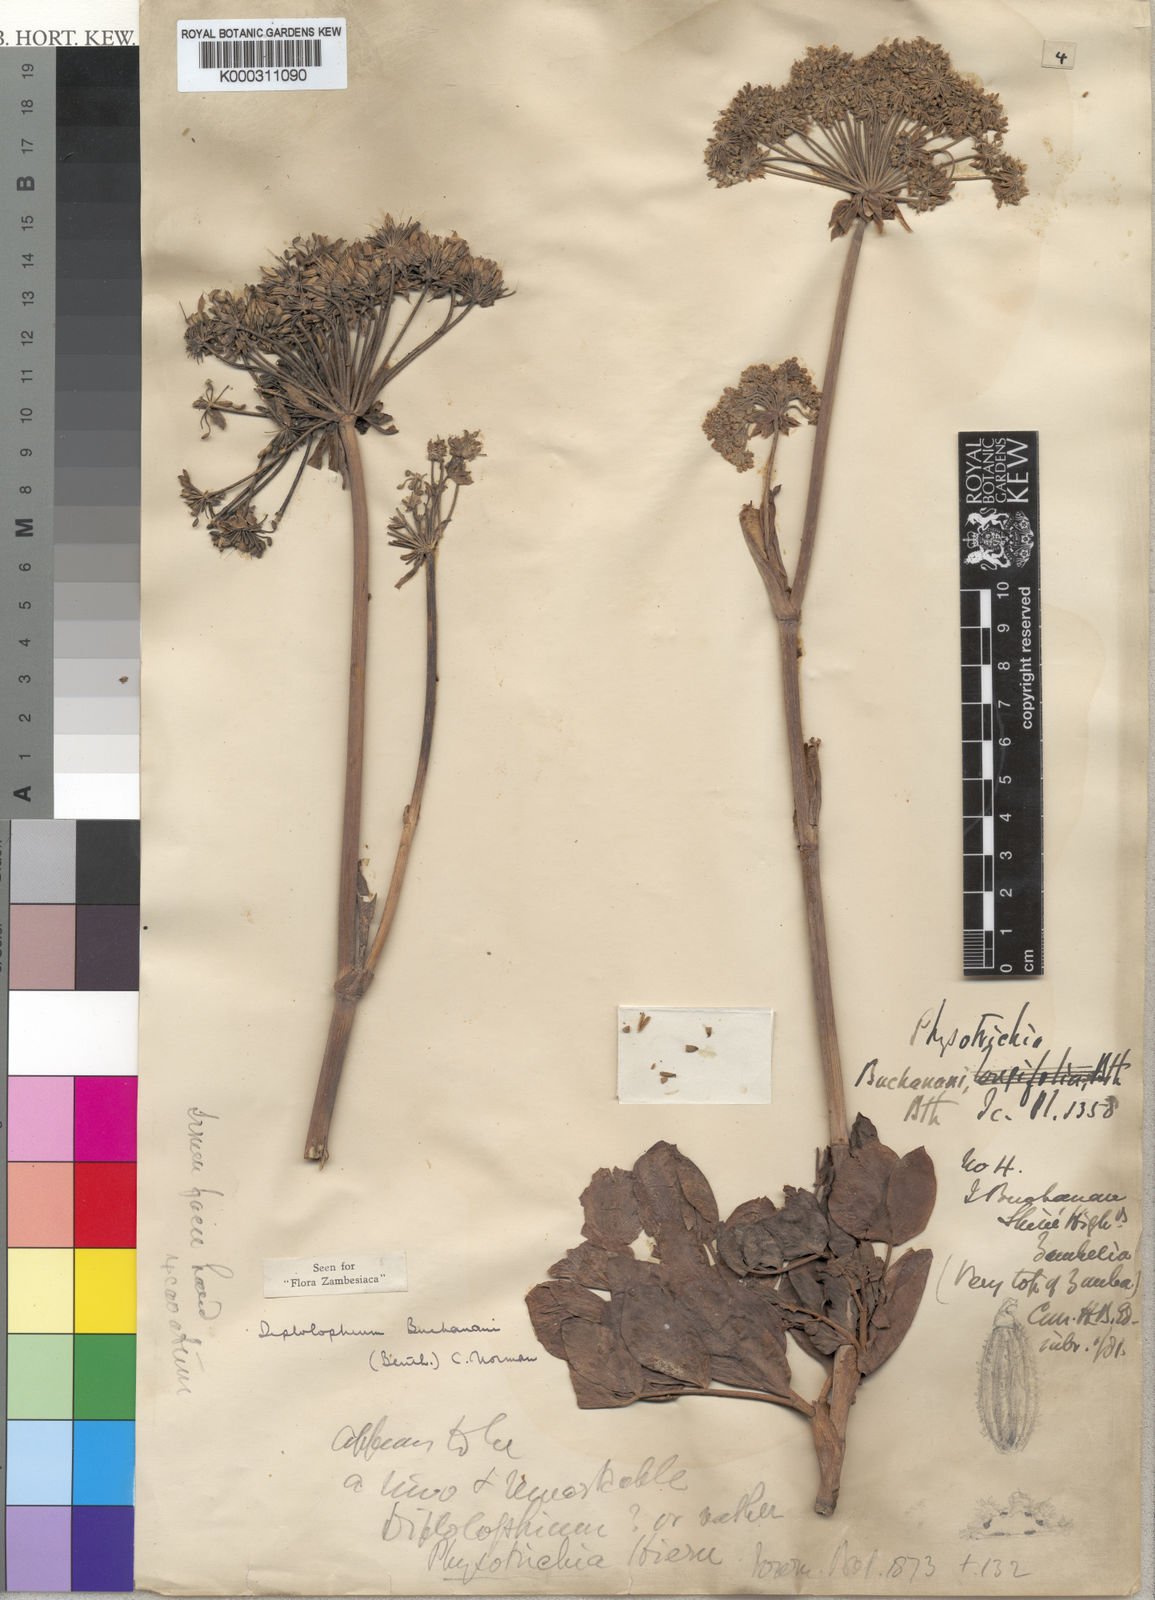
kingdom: Plantae
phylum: Tracheophyta
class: Magnoliopsida
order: Apiales
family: Apiaceae
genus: Diplolophium
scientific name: Diplolophium buchananii
